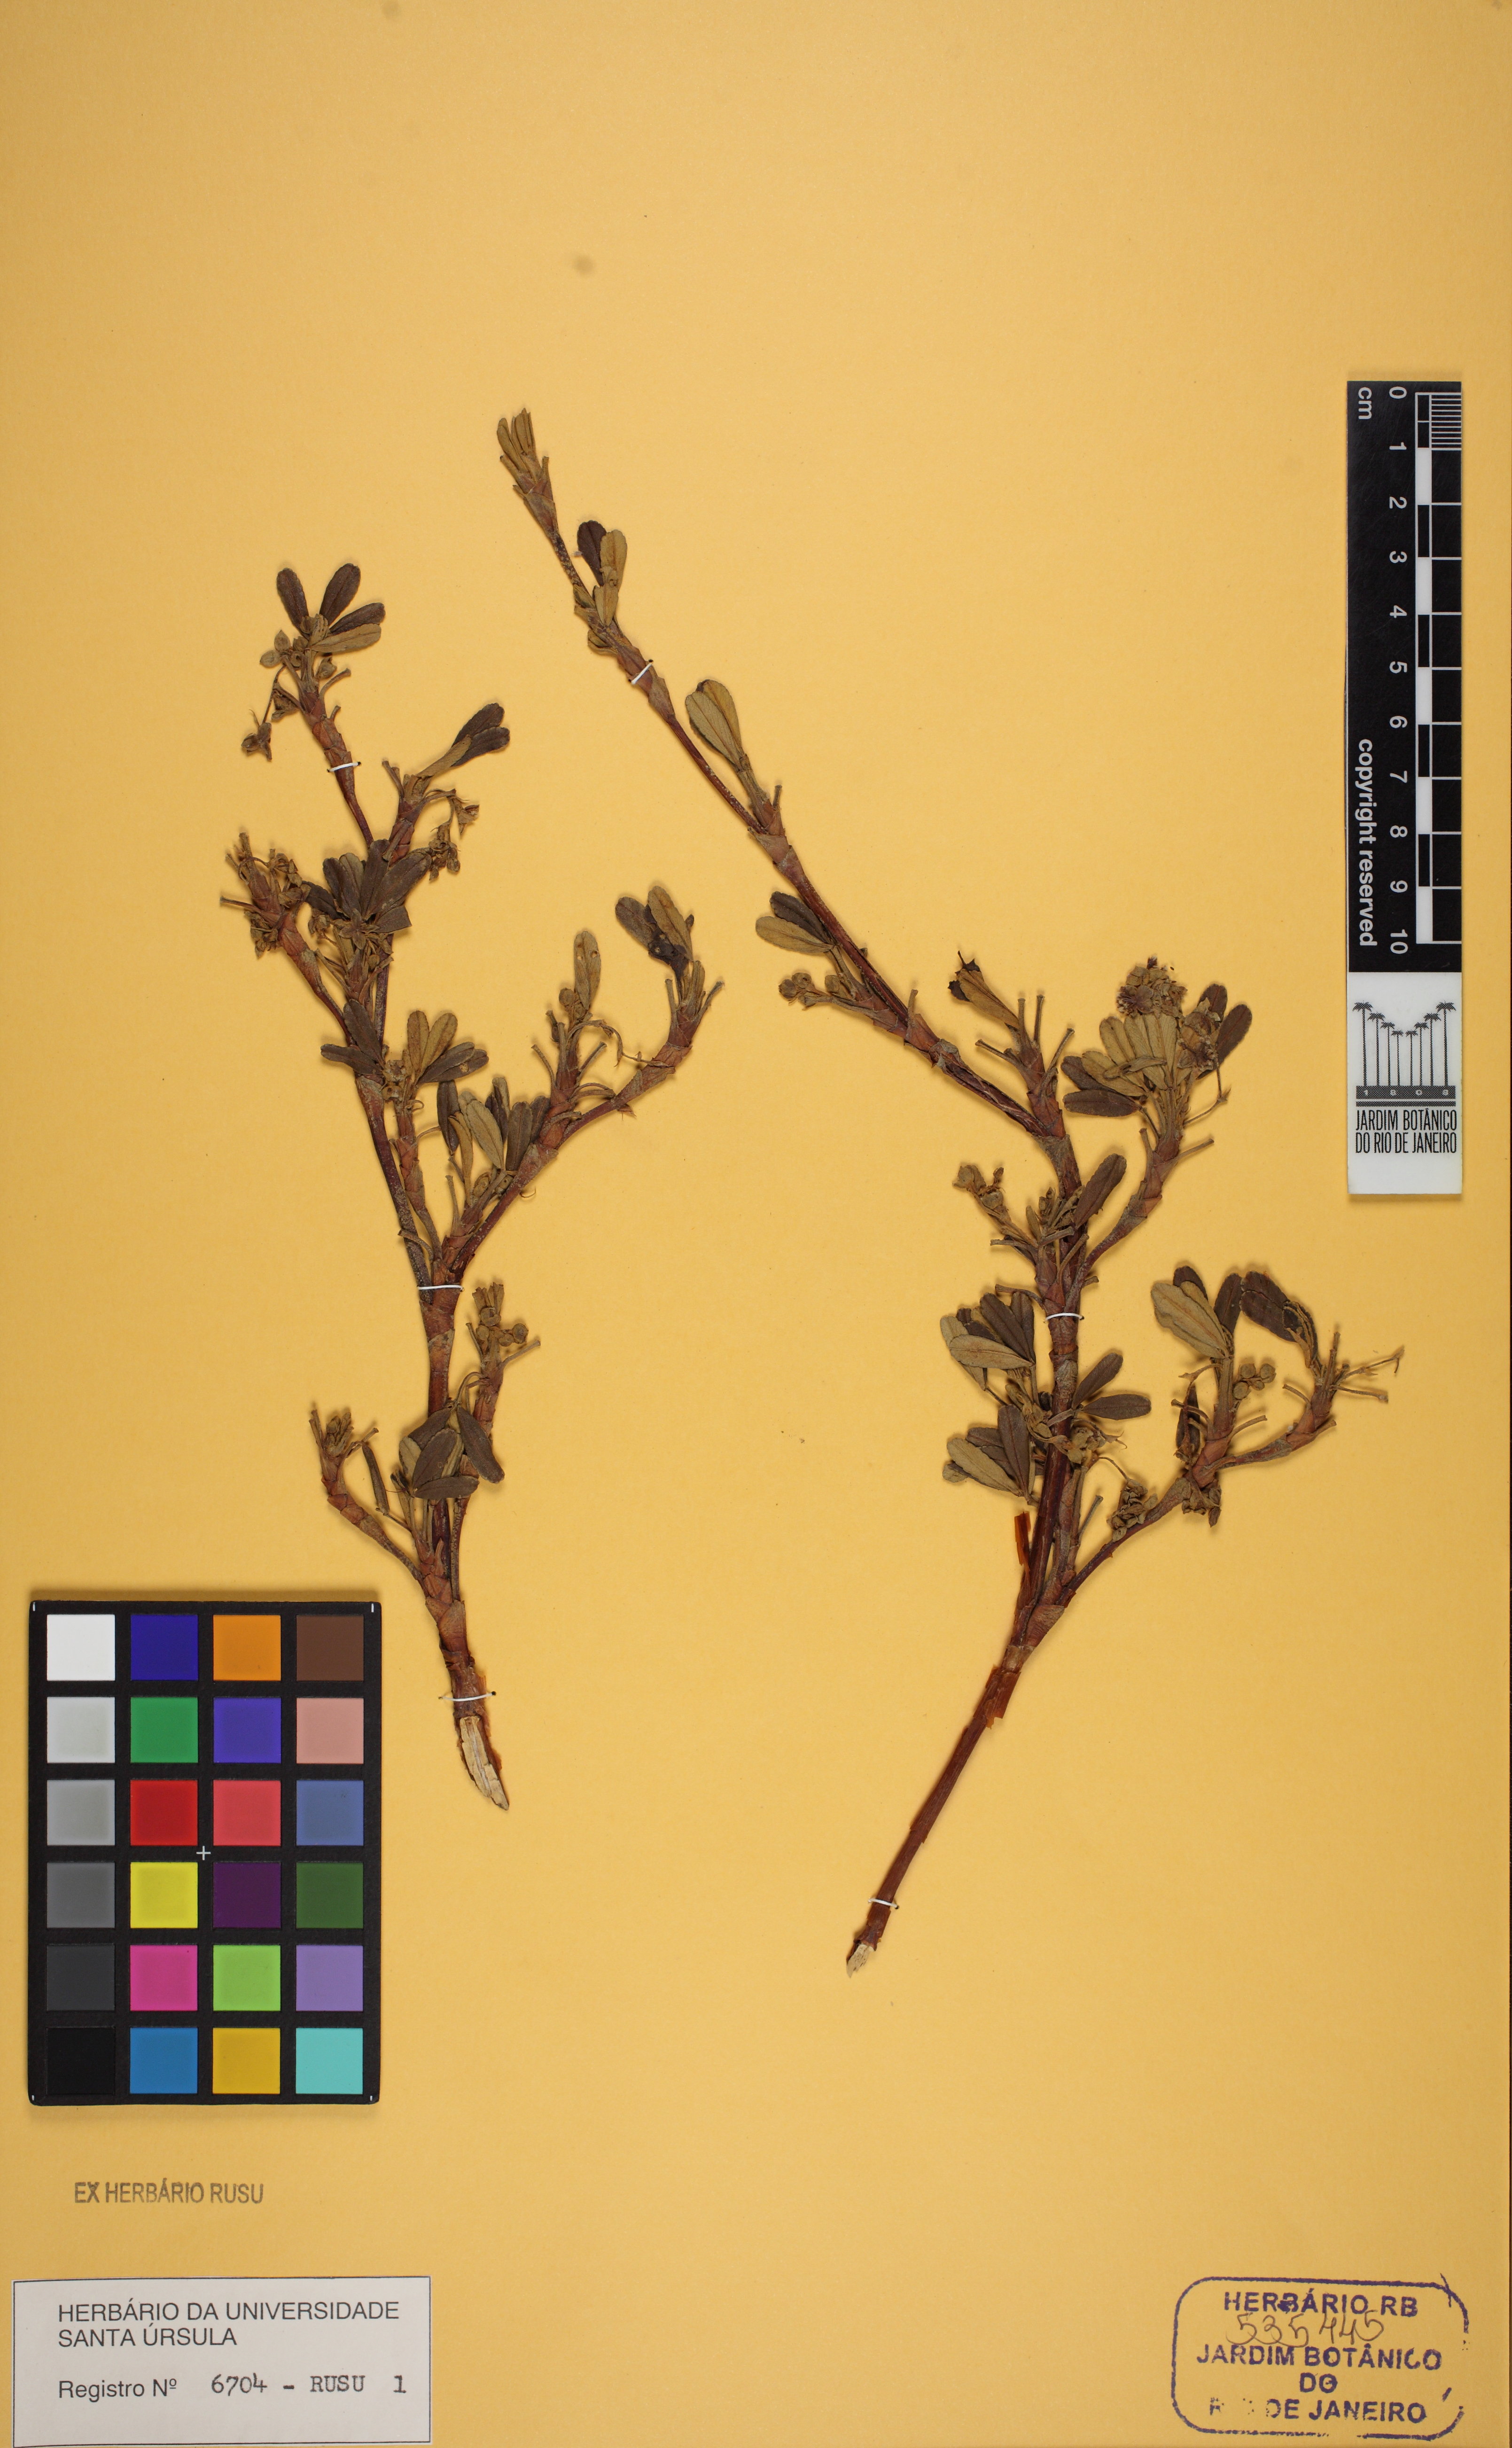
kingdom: Plantae
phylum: Tracheophyta
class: Magnoliopsida
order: Rosales
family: Rosaceae
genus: Polylepis
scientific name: Polylepis
